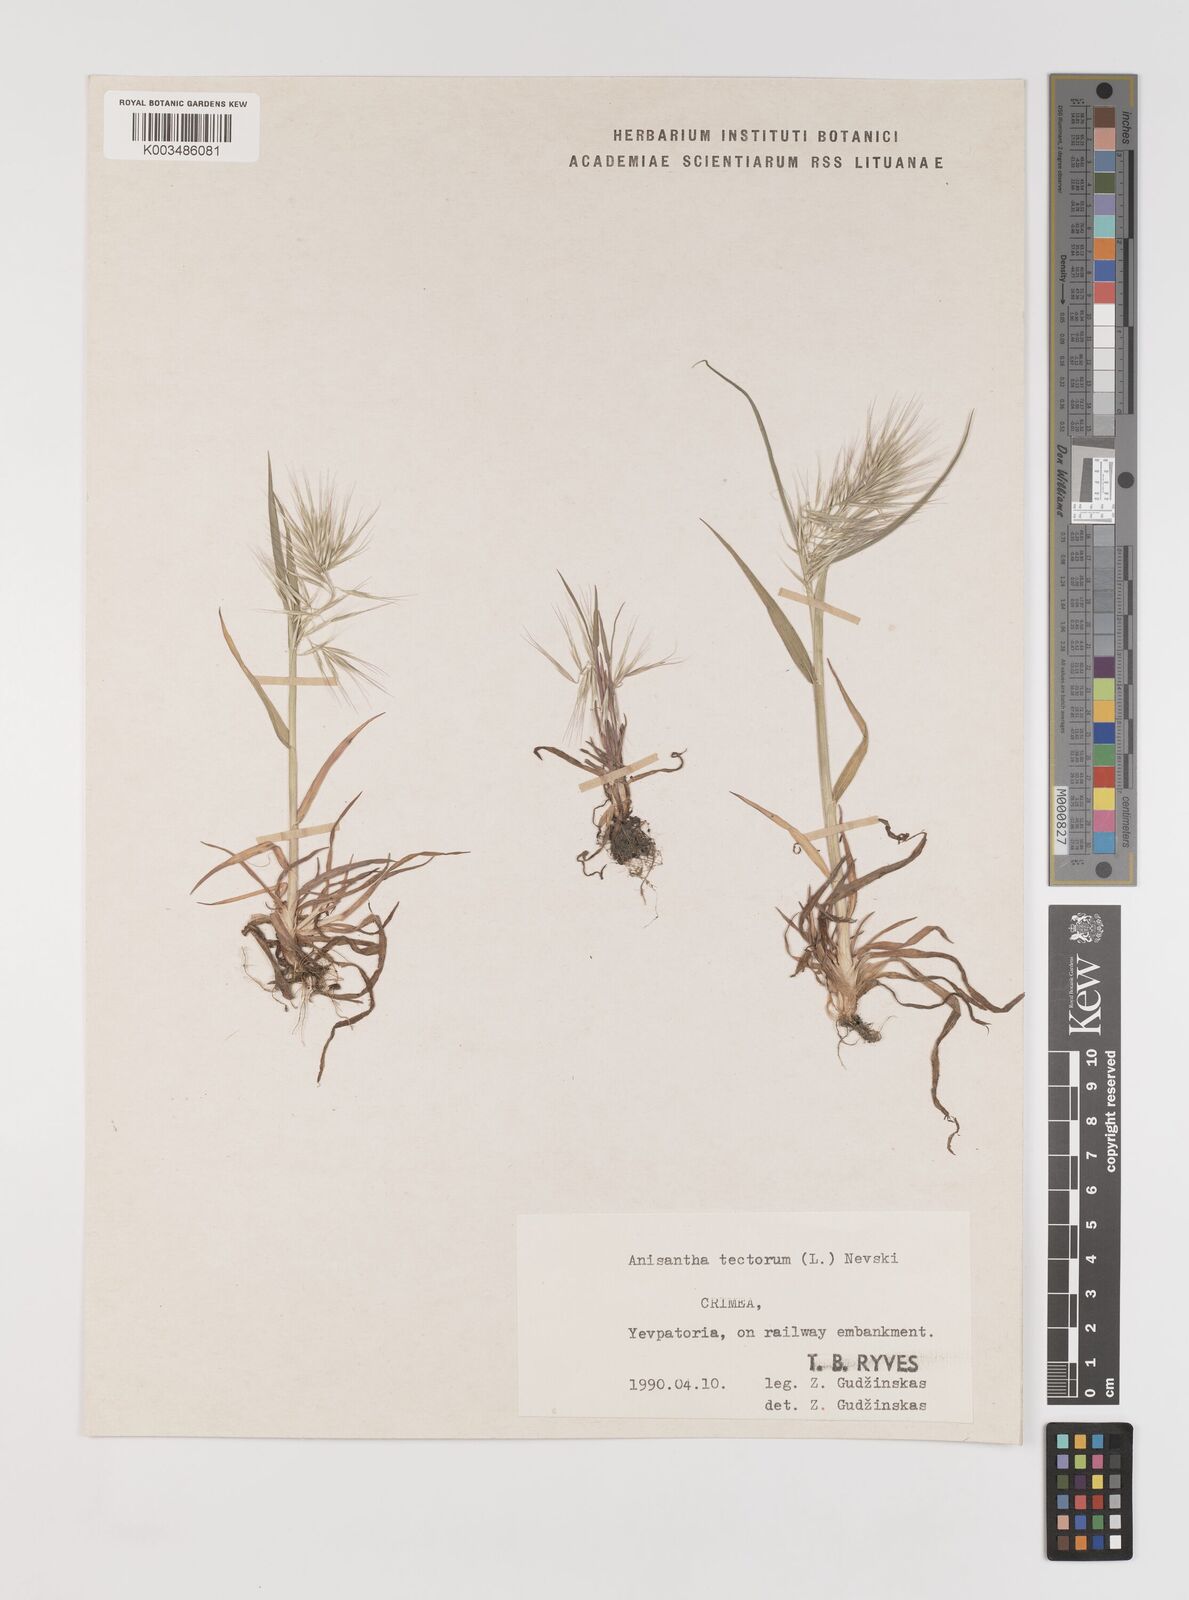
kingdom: Plantae
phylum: Tracheophyta
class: Liliopsida
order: Poales
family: Poaceae
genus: Bromus
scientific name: Bromus tectorum
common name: Cheatgrass
